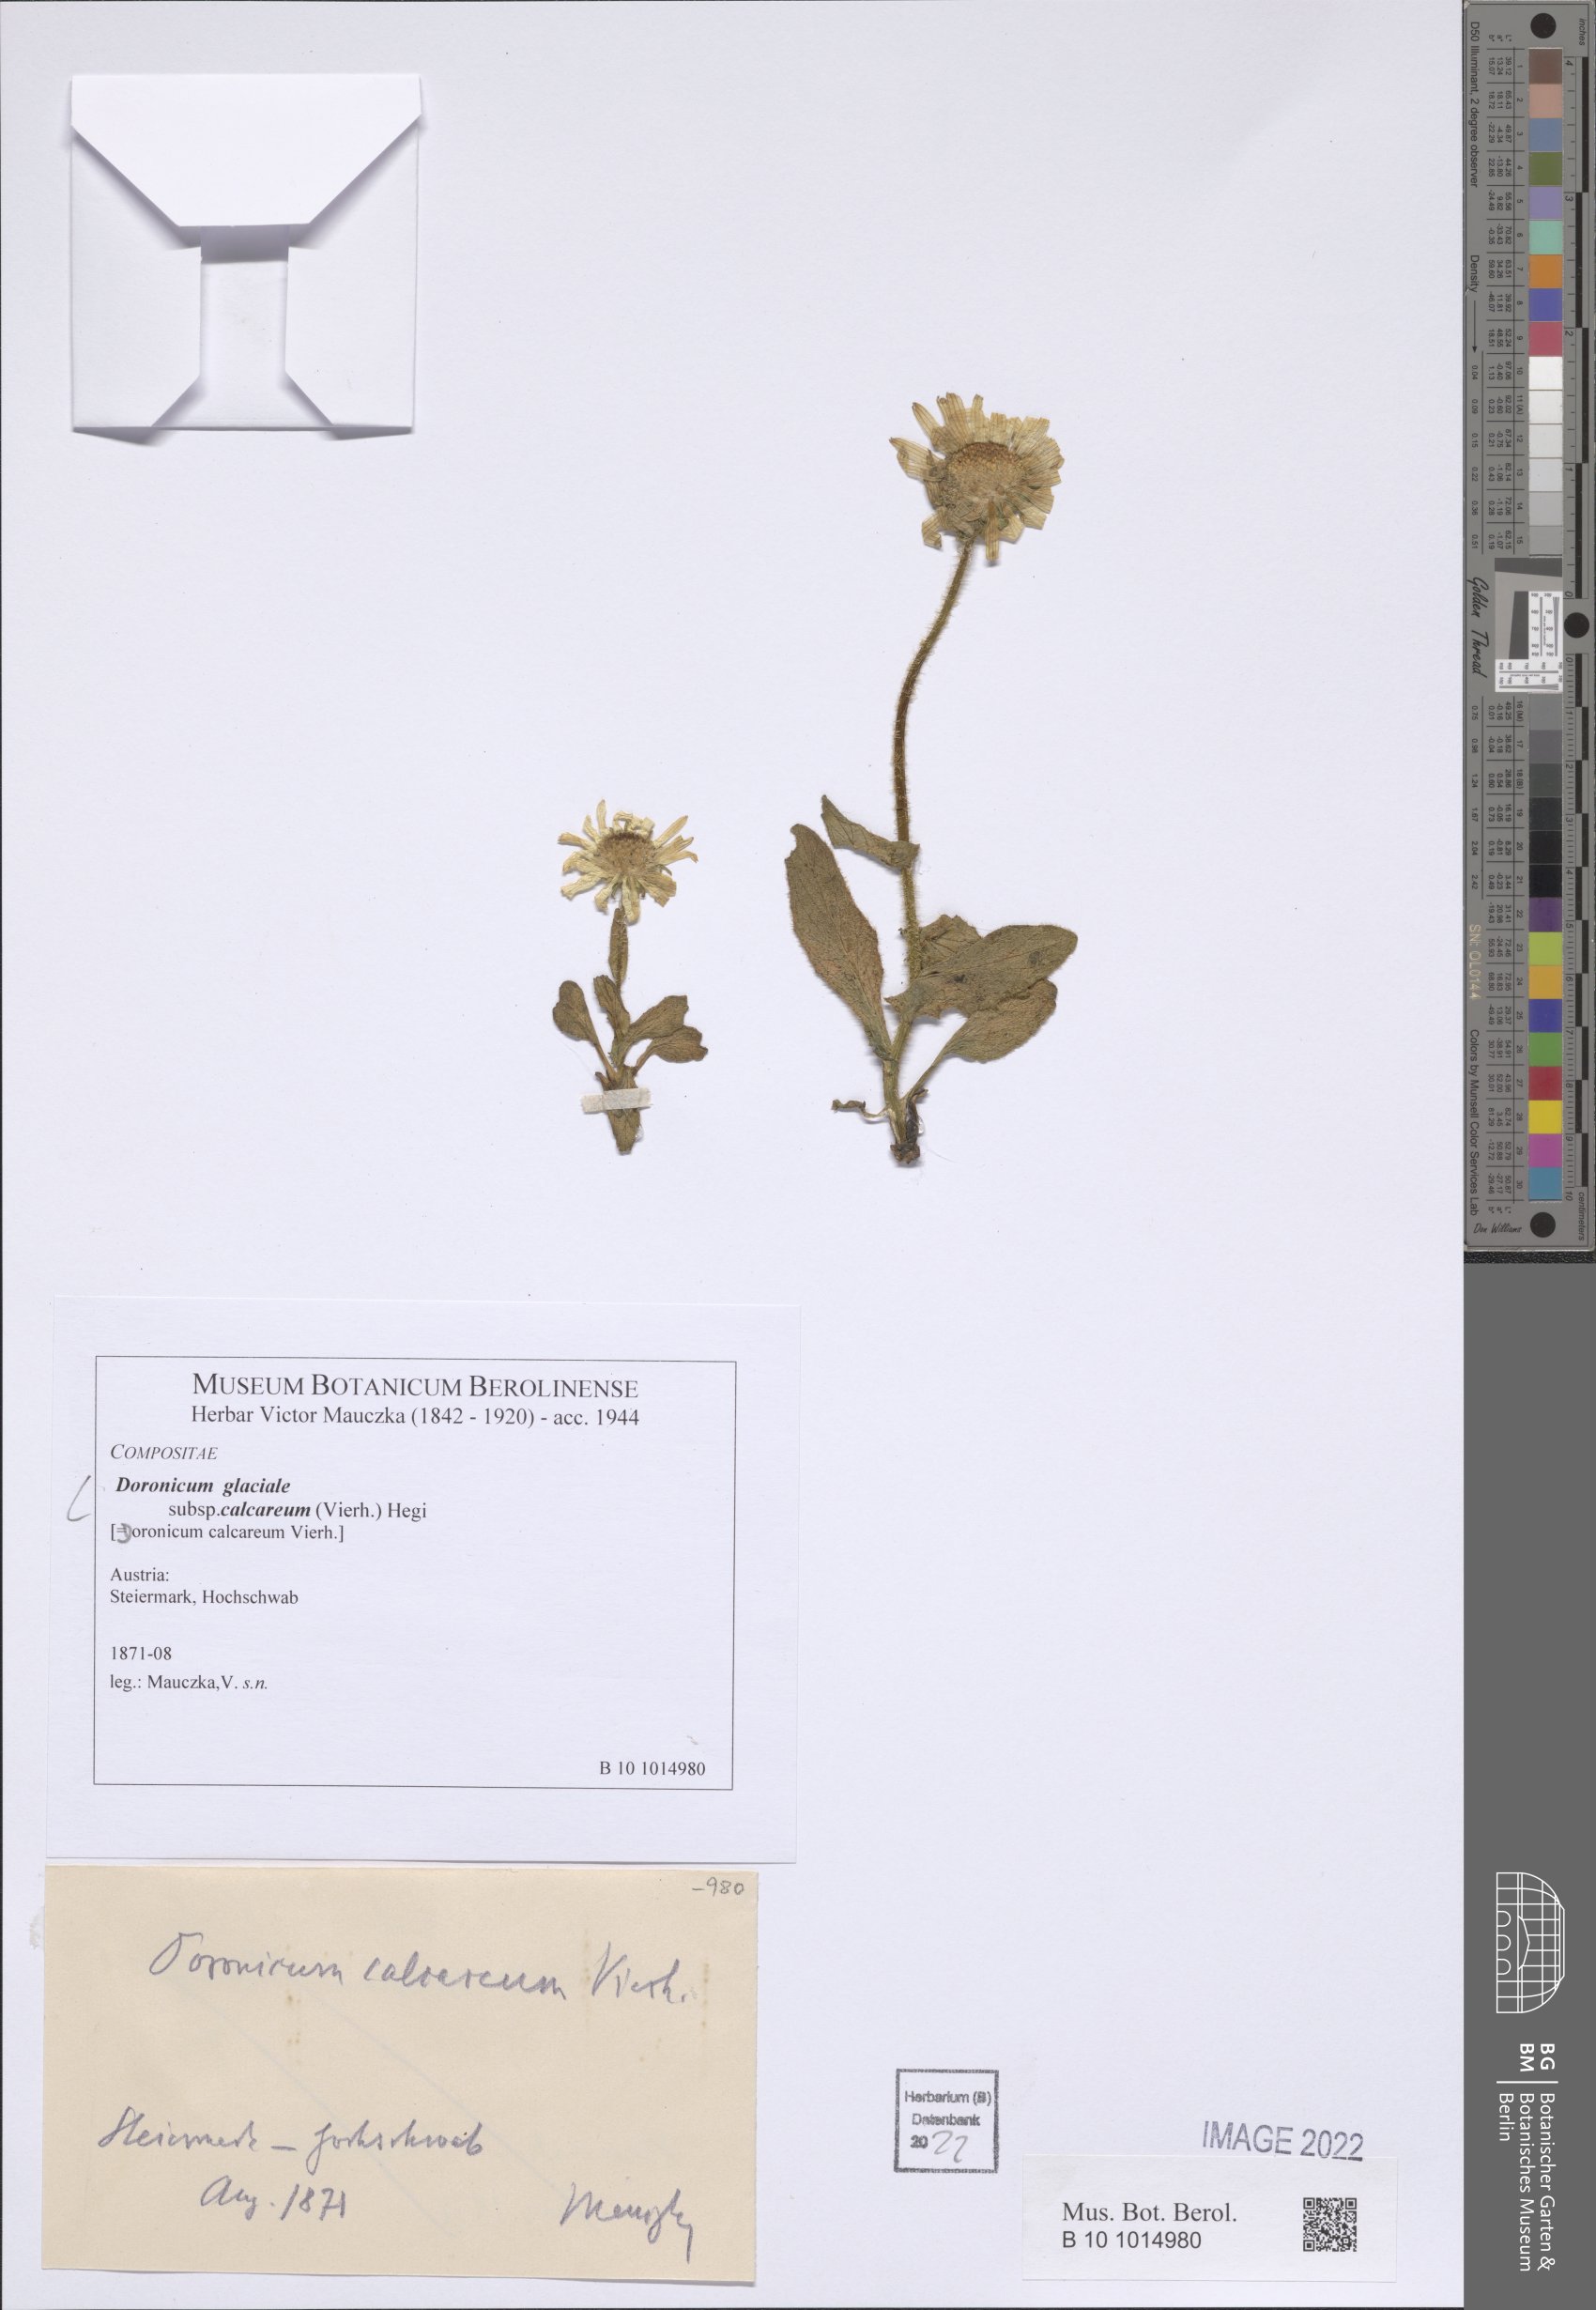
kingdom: Plantae
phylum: Tracheophyta
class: Magnoliopsida
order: Asterales
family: Asteraceae
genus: Doronicum
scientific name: Doronicum glaciale
